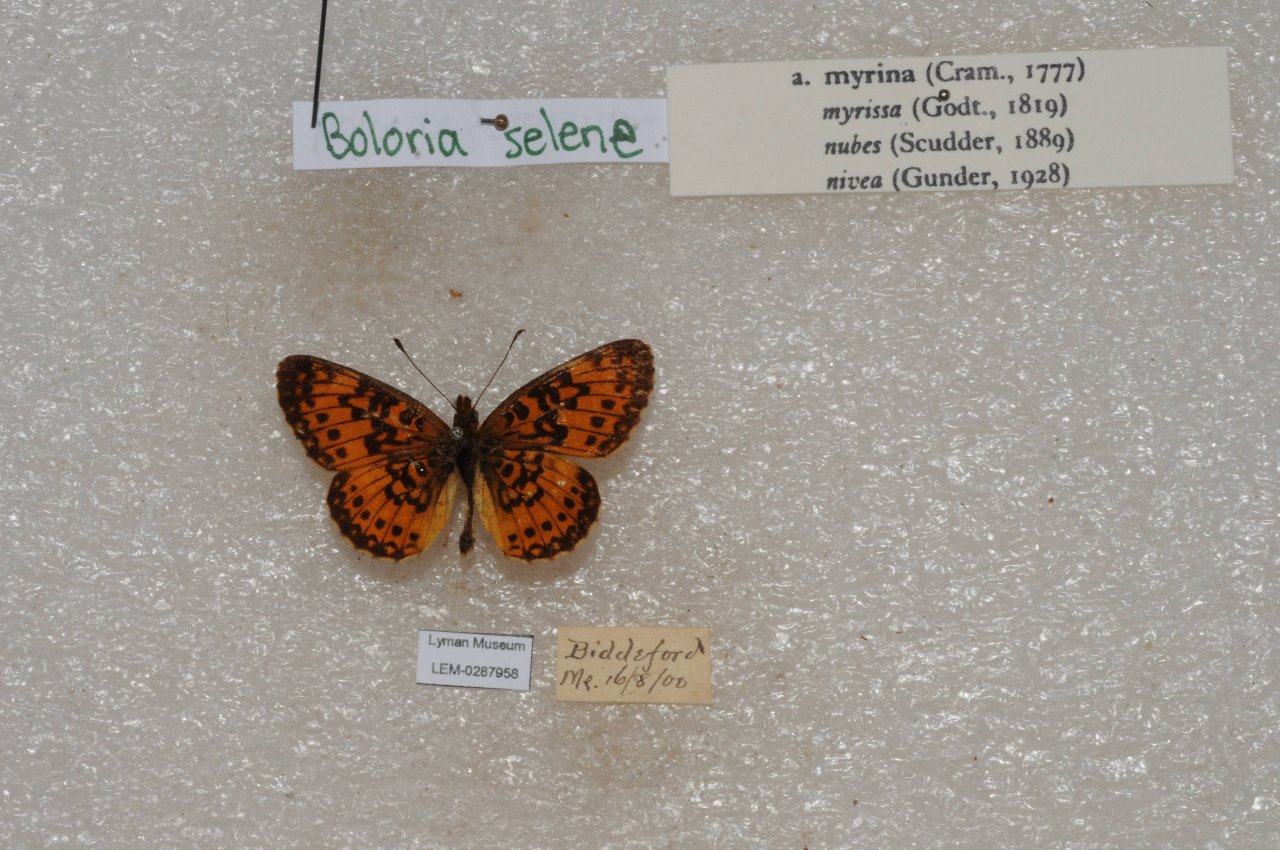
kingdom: Animalia
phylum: Arthropoda
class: Insecta
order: Lepidoptera
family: Nymphalidae
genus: Boloria
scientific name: Boloria selene
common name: Silver-bordered Fritillary
